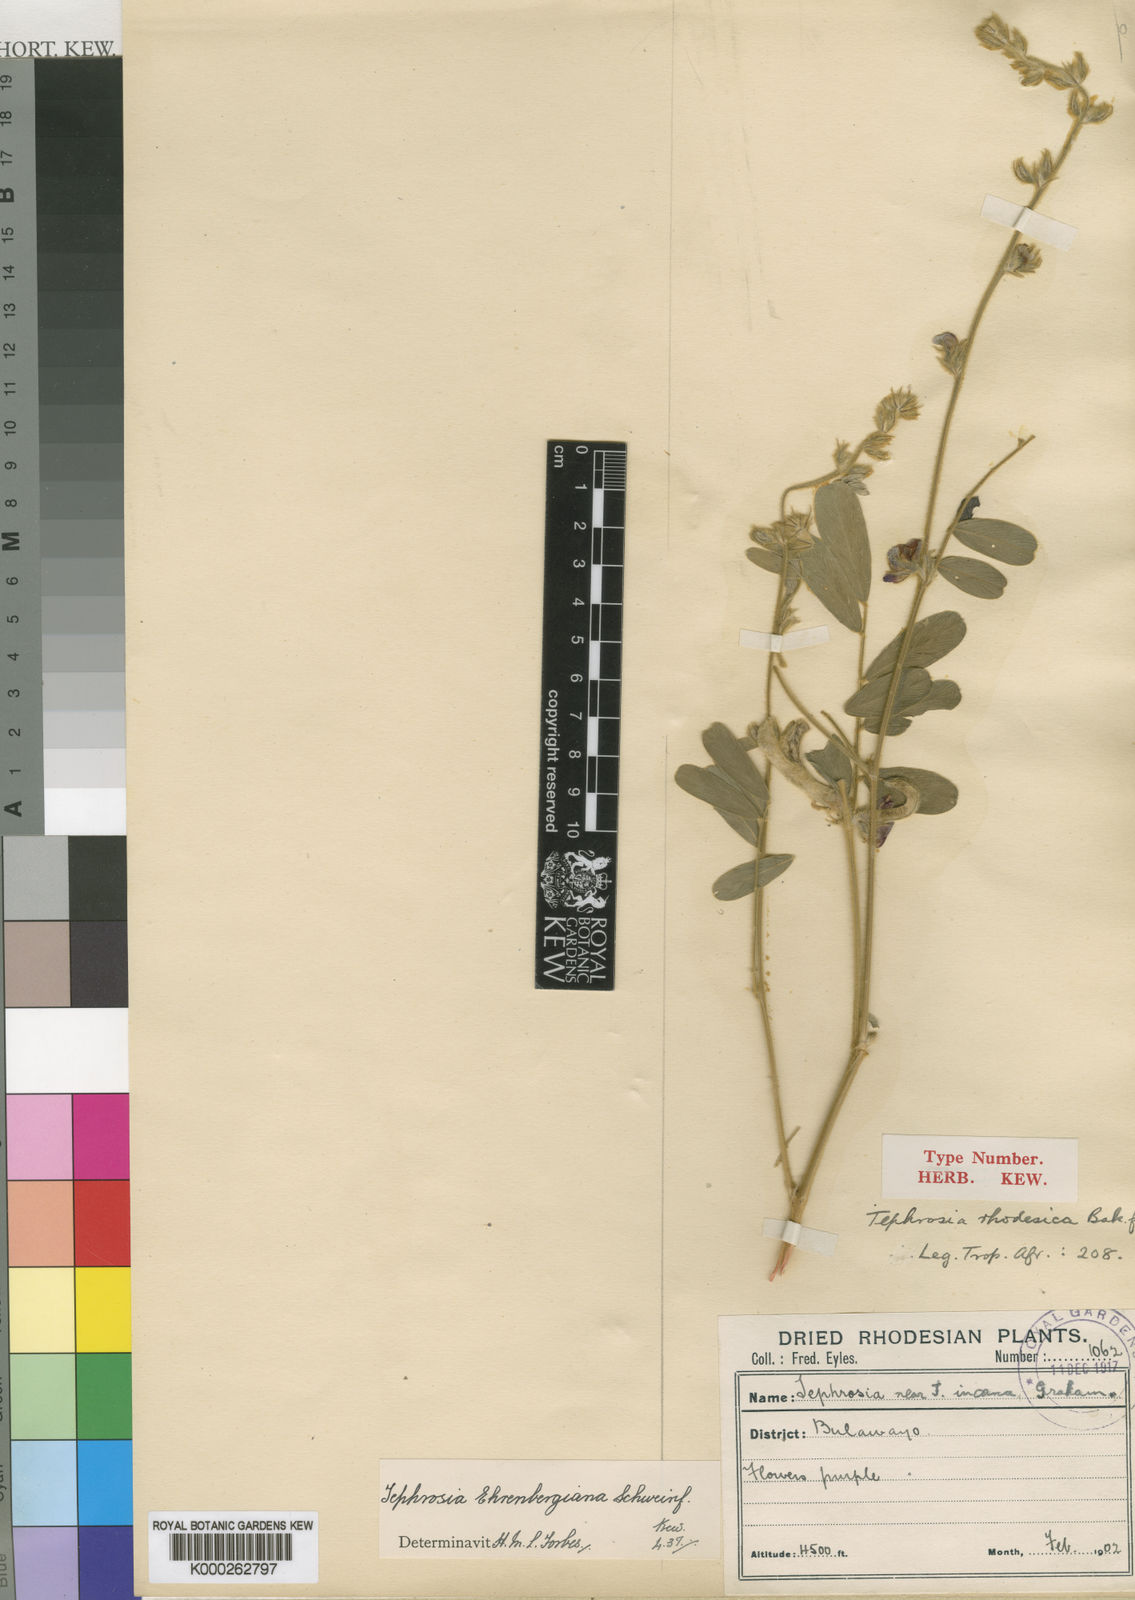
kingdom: Plantae
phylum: Tracheophyta
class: Magnoliopsida
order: Fabales
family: Fabaceae
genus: Tephrosia
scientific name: Tephrosia villosa
